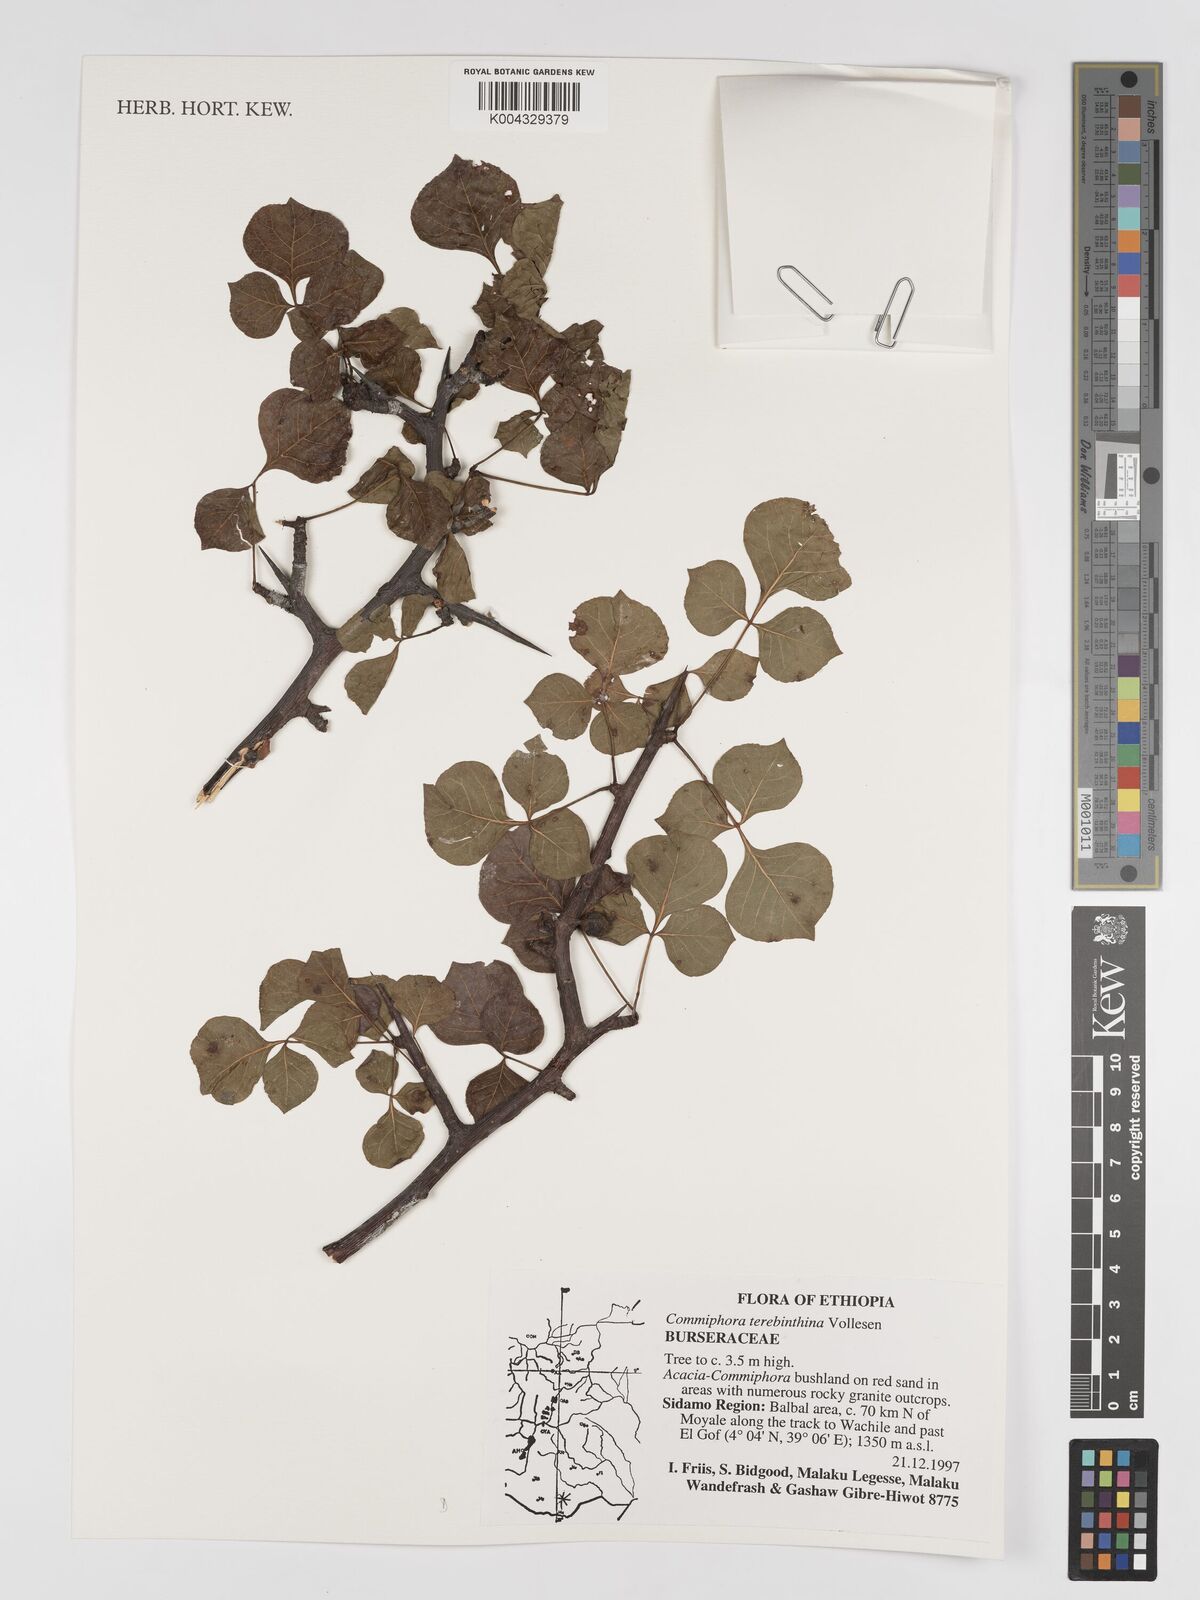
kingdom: Plantae
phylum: Tracheophyta
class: Magnoliopsida
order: Sapindales
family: Burseraceae
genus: Commiphora
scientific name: Commiphora samharensis
